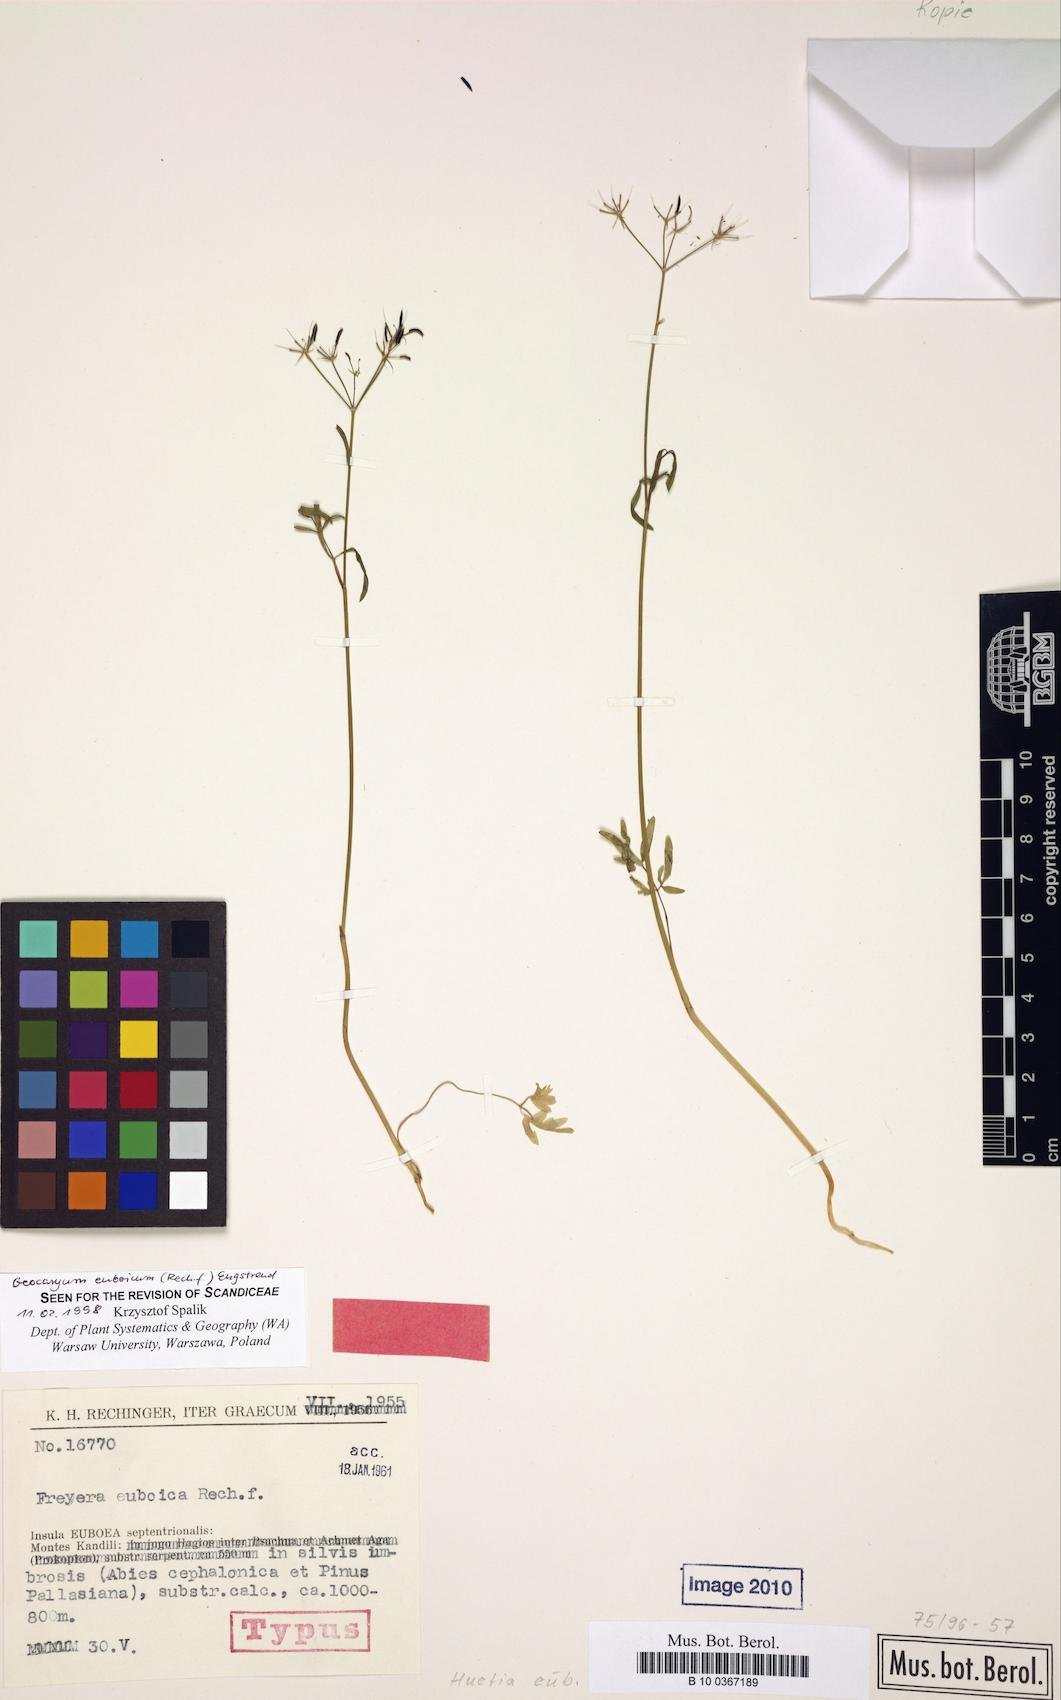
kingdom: Plantae
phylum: Tracheophyta
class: Magnoliopsida
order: Apiales
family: Apiaceae
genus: Geocaryum
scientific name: Geocaryum euboicum
